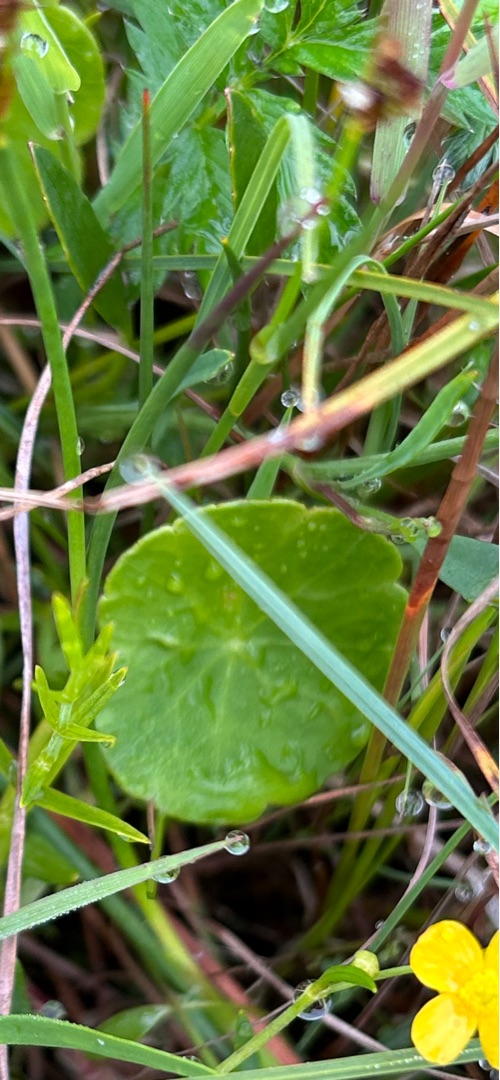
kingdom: Plantae
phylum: Tracheophyta
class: Magnoliopsida
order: Apiales
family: Araliaceae
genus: Hydrocotyle
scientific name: Hydrocotyle vulgaris
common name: Vandnavle
